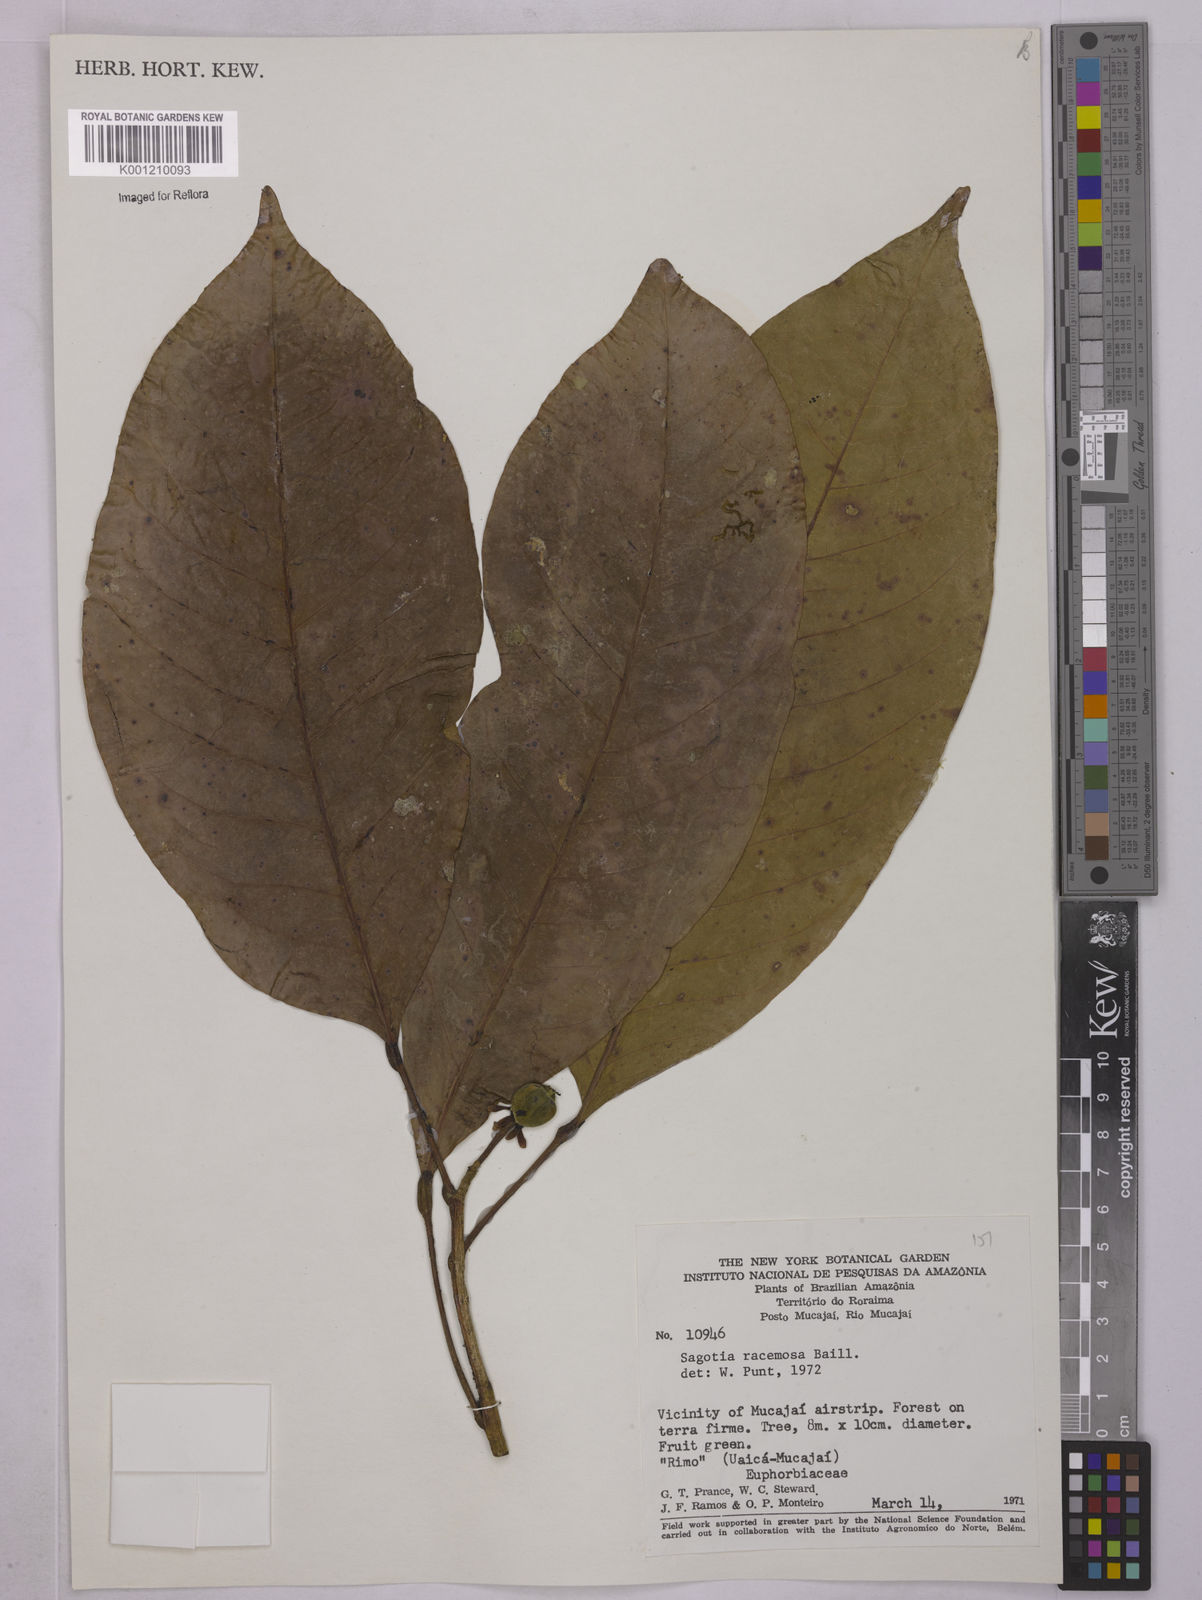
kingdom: Plantae
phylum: Tracheophyta
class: Magnoliopsida
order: Malpighiales
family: Euphorbiaceae
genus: Sagotia
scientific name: Sagotia racemosa
